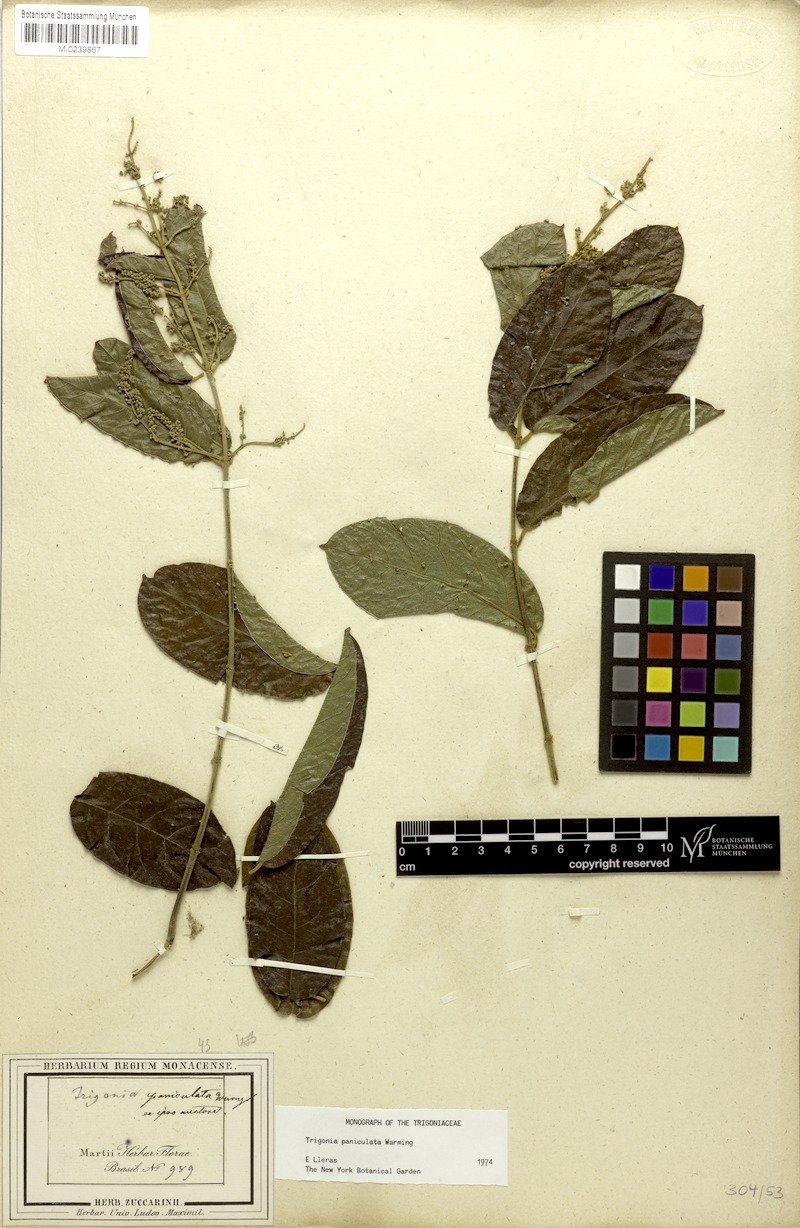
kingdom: Plantae
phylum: Tracheophyta
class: Magnoliopsida
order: Malpighiales
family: Trigoniaceae
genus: Trigonia
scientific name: Trigonia paniculata
